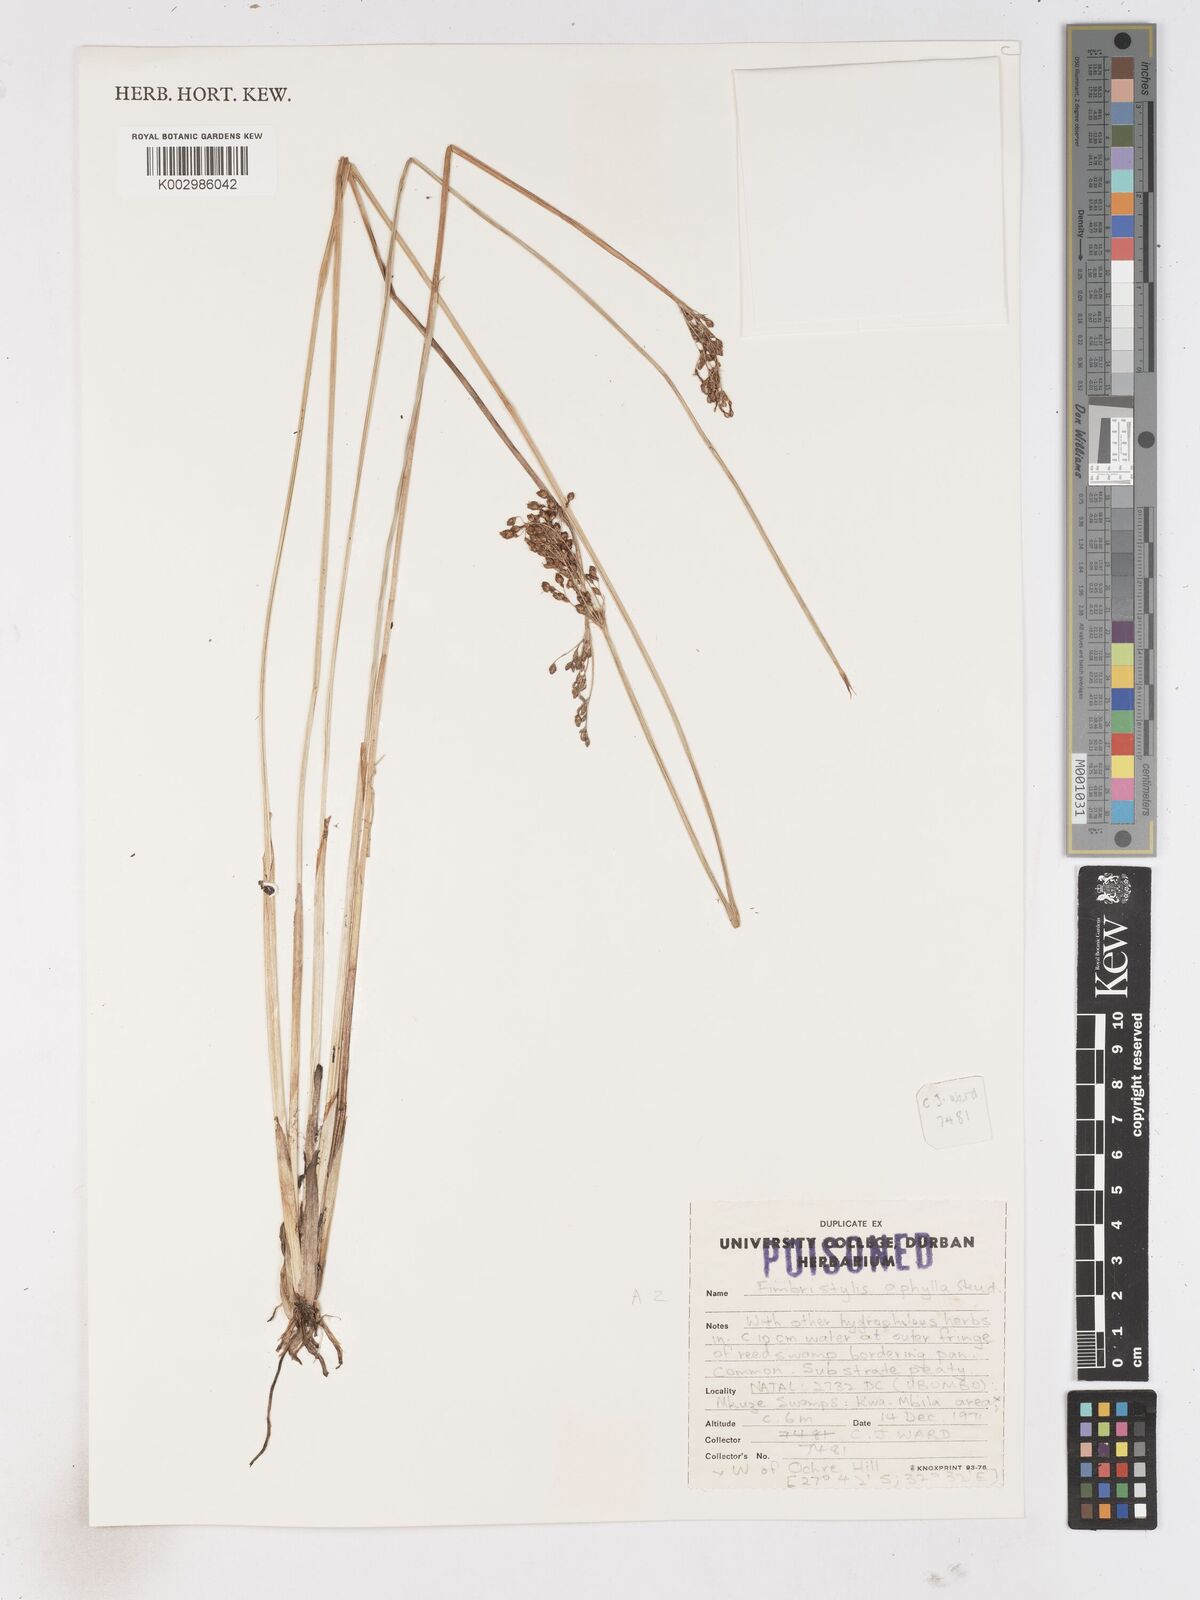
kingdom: Plantae
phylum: Tracheophyta
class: Liliopsida
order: Poales
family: Cyperaceae
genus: Fimbristylis
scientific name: Fimbristylis
